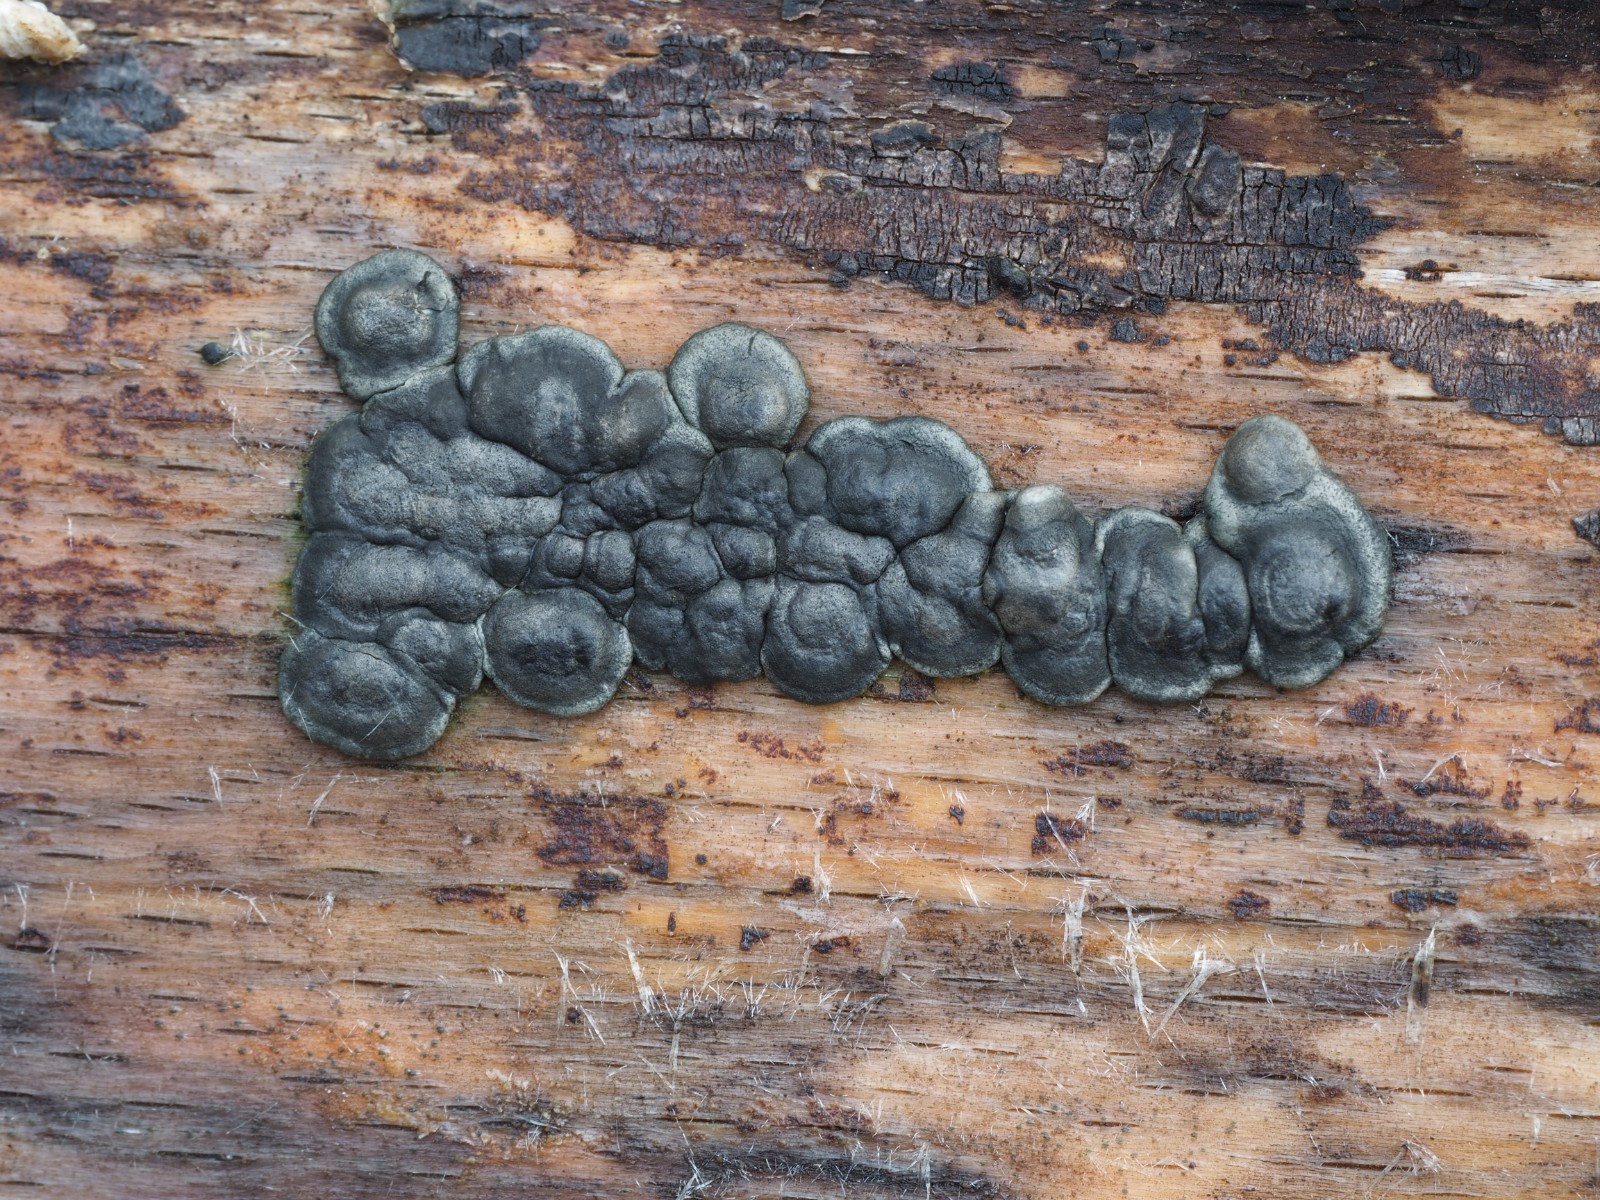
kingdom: Fungi
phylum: Ascomycota
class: Sordariomycetes
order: Hypocreales
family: Hypocreaceae
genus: Trichoderma
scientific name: Trichoderma citrinoviride
